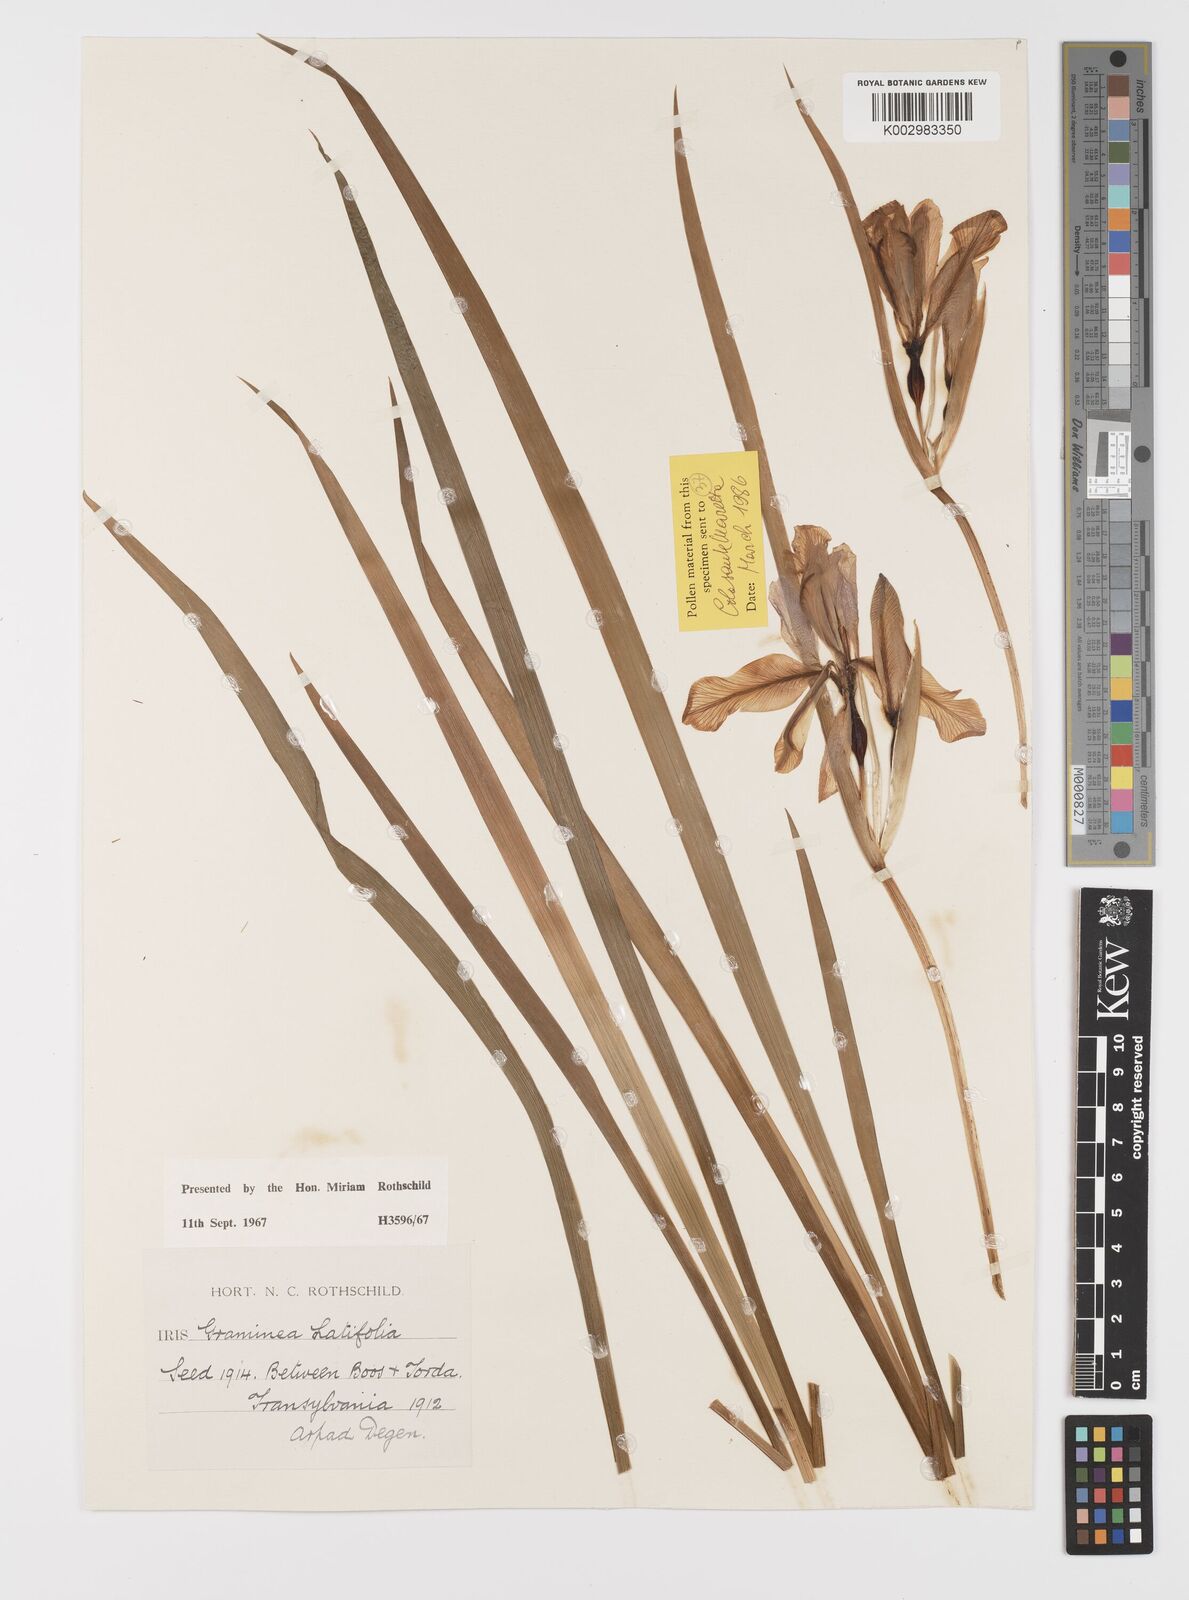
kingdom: Plantae
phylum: Tracheophyta
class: Liliopsida
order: Asparagales
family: Iridaceae
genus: Iris
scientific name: Iris graminea
